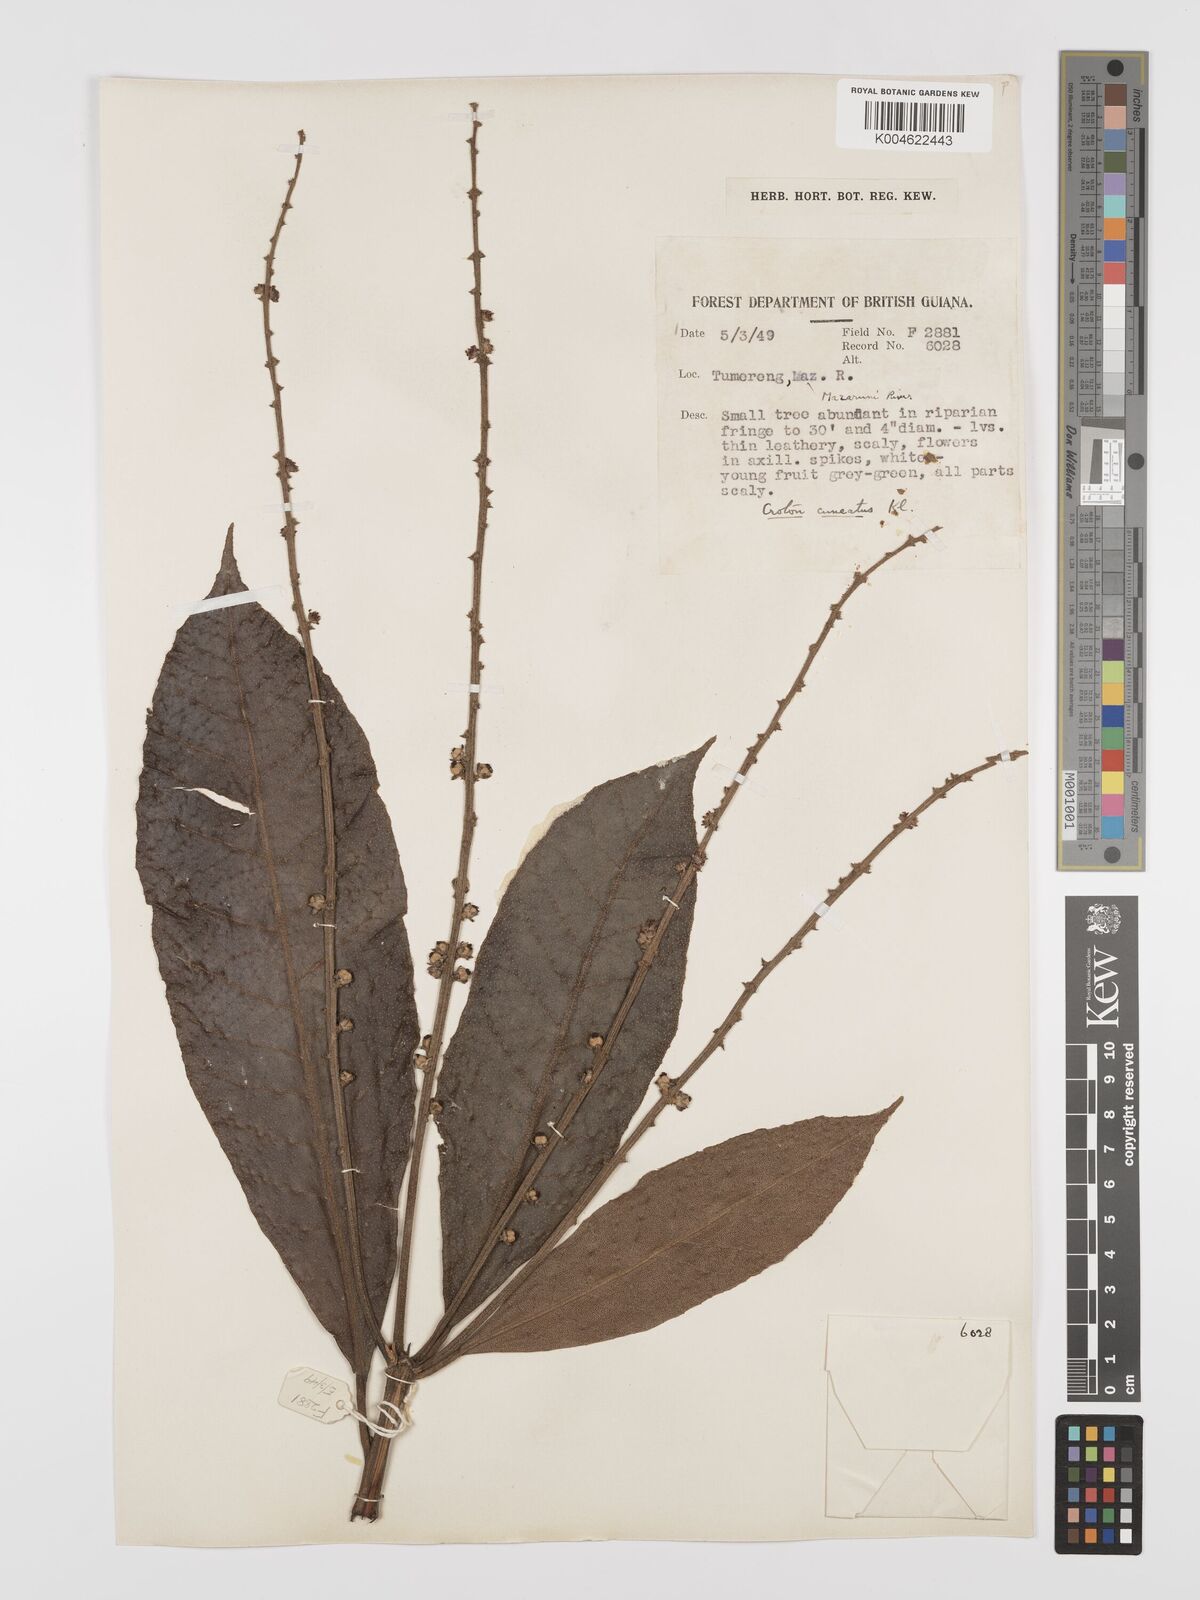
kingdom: Plantae
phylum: Tracheophyta
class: Magnoliopsida
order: Malpighiales
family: Euphorbiaceae
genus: Croton
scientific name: Croton
